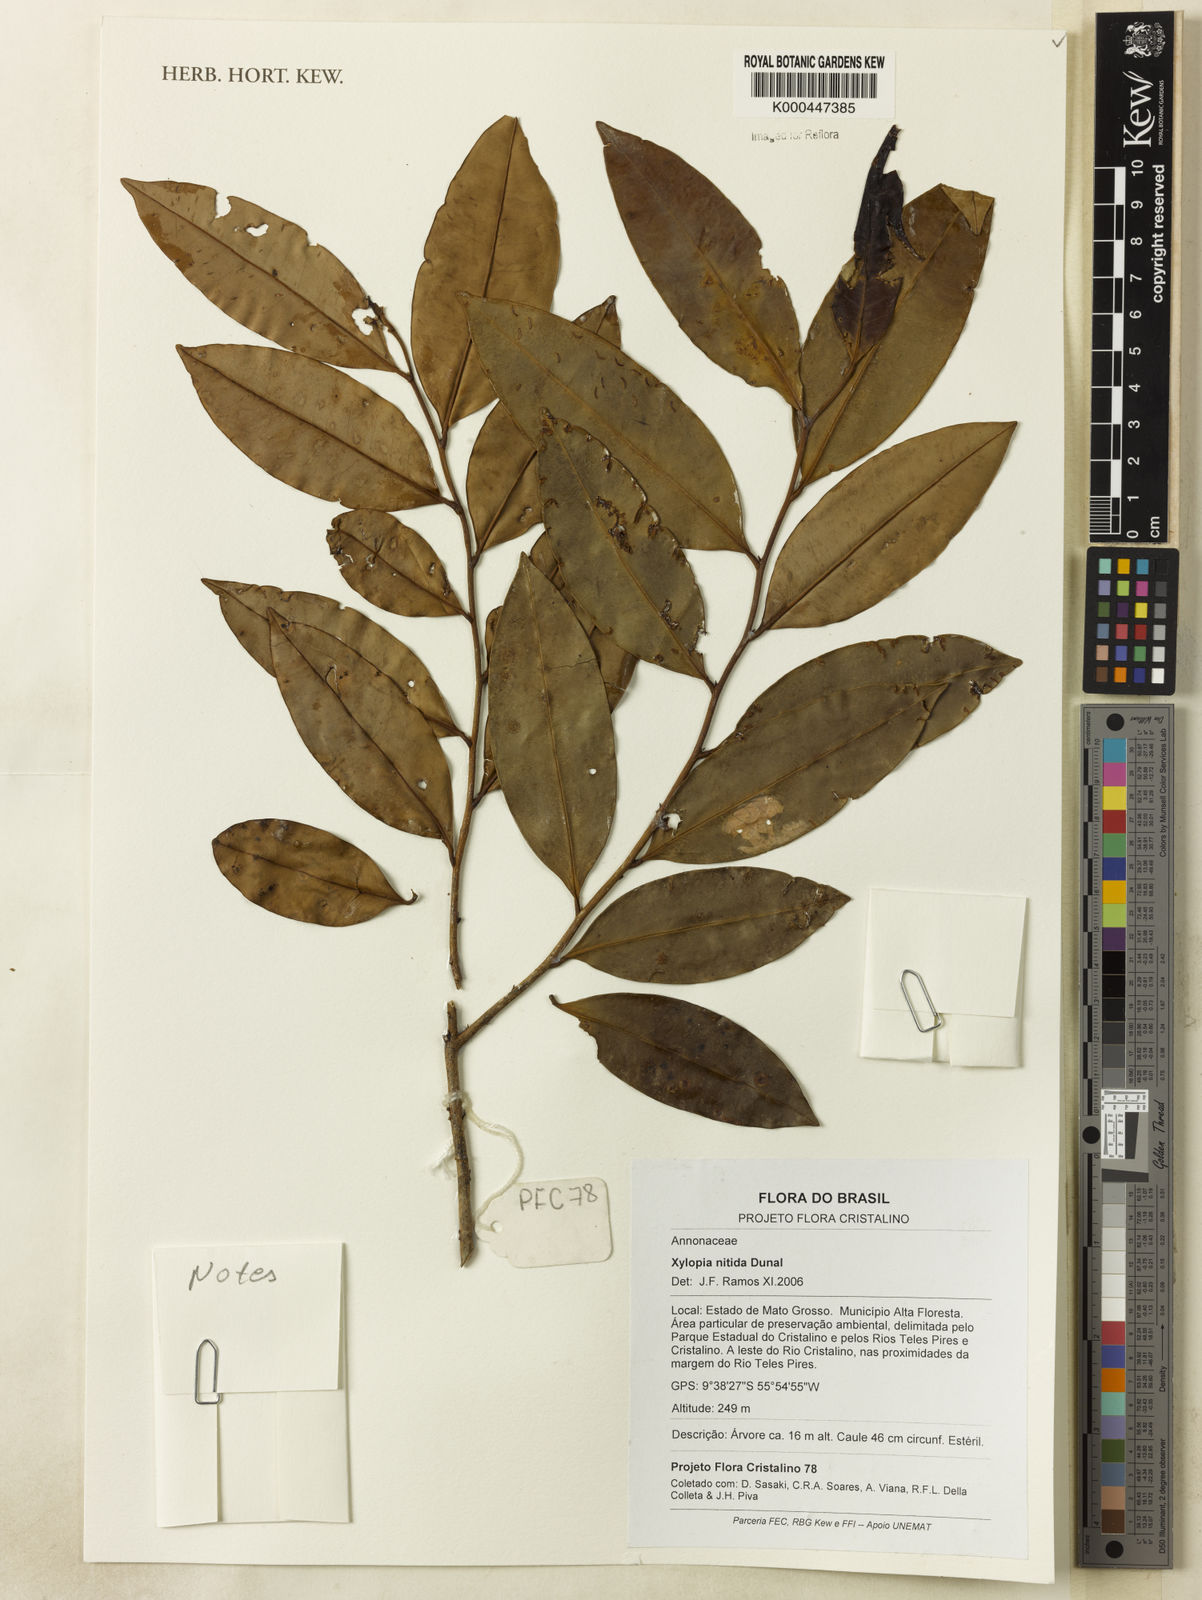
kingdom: Plantae
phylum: Tracheophyta
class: Magnoliopsida
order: Magnoliales
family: Annonaceae
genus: Xylopia
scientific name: Xylopia nitida
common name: White kuyama
